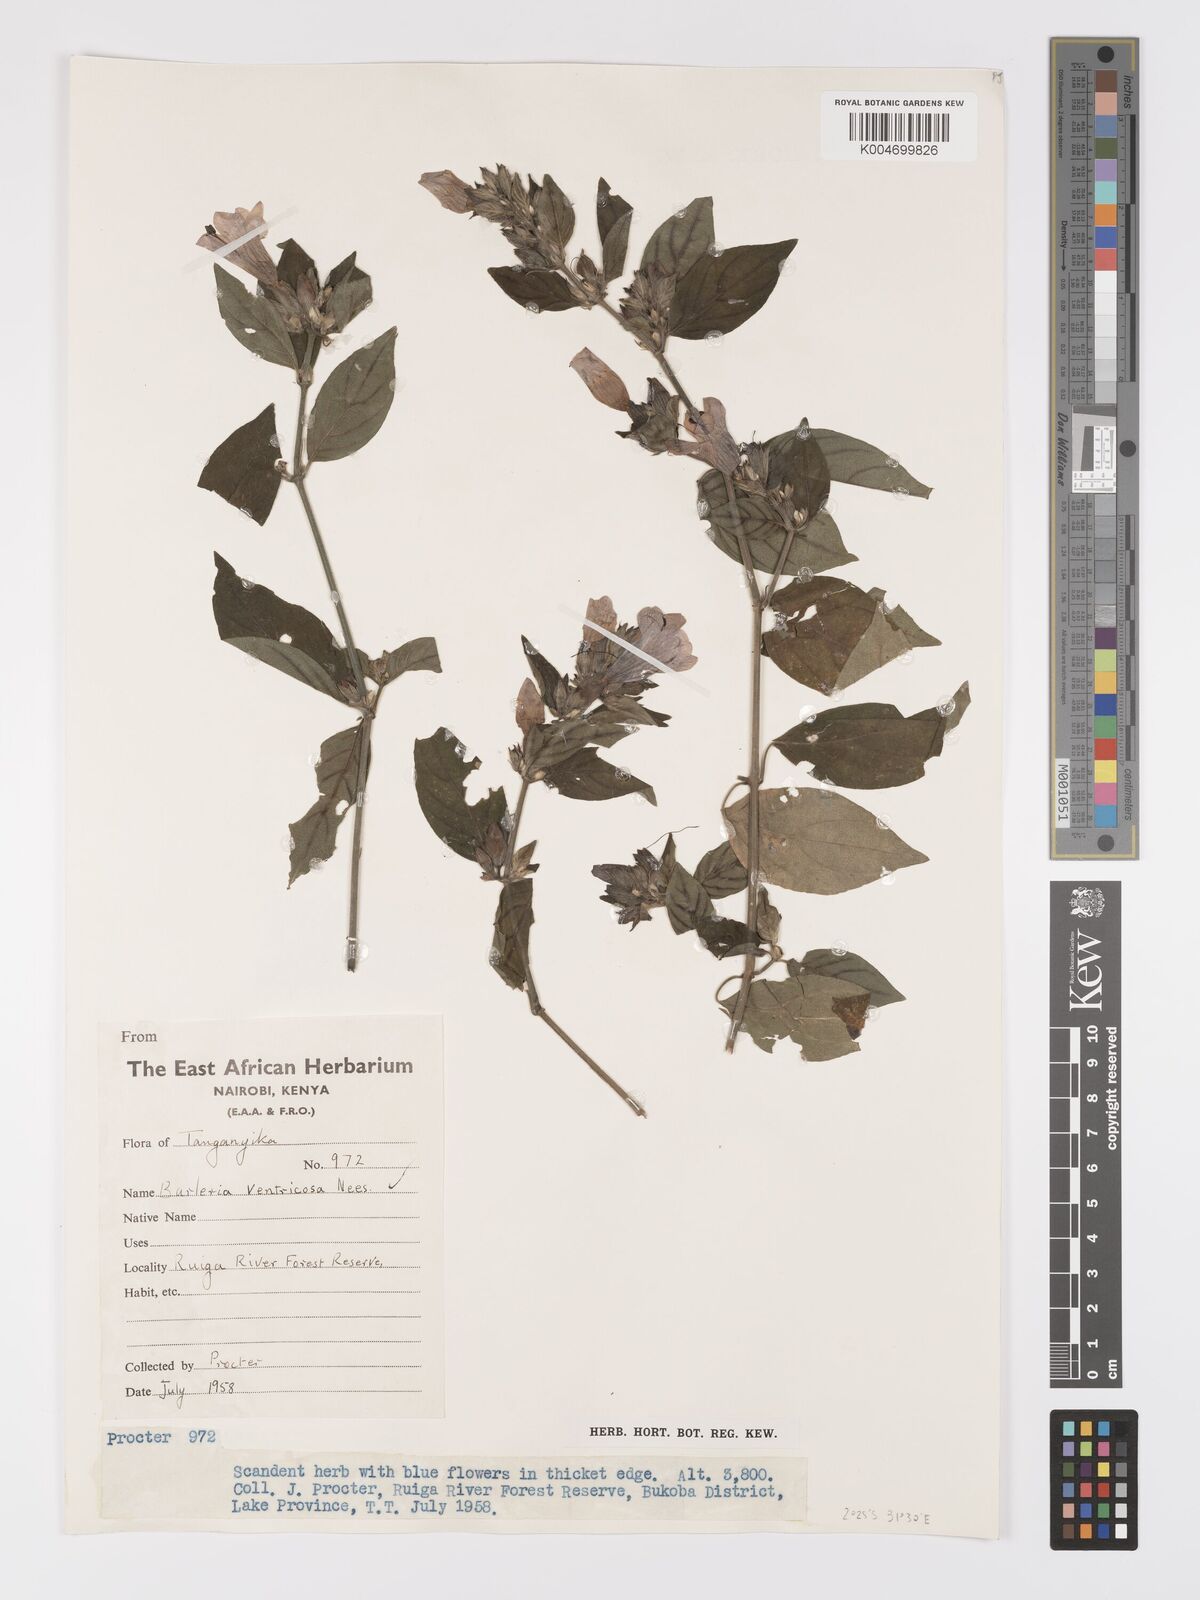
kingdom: Plantae
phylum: Tracheophyta
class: Magnoliopsida
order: Lamiales
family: Acanthaceae
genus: Barleria
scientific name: Barleria ventricosa
